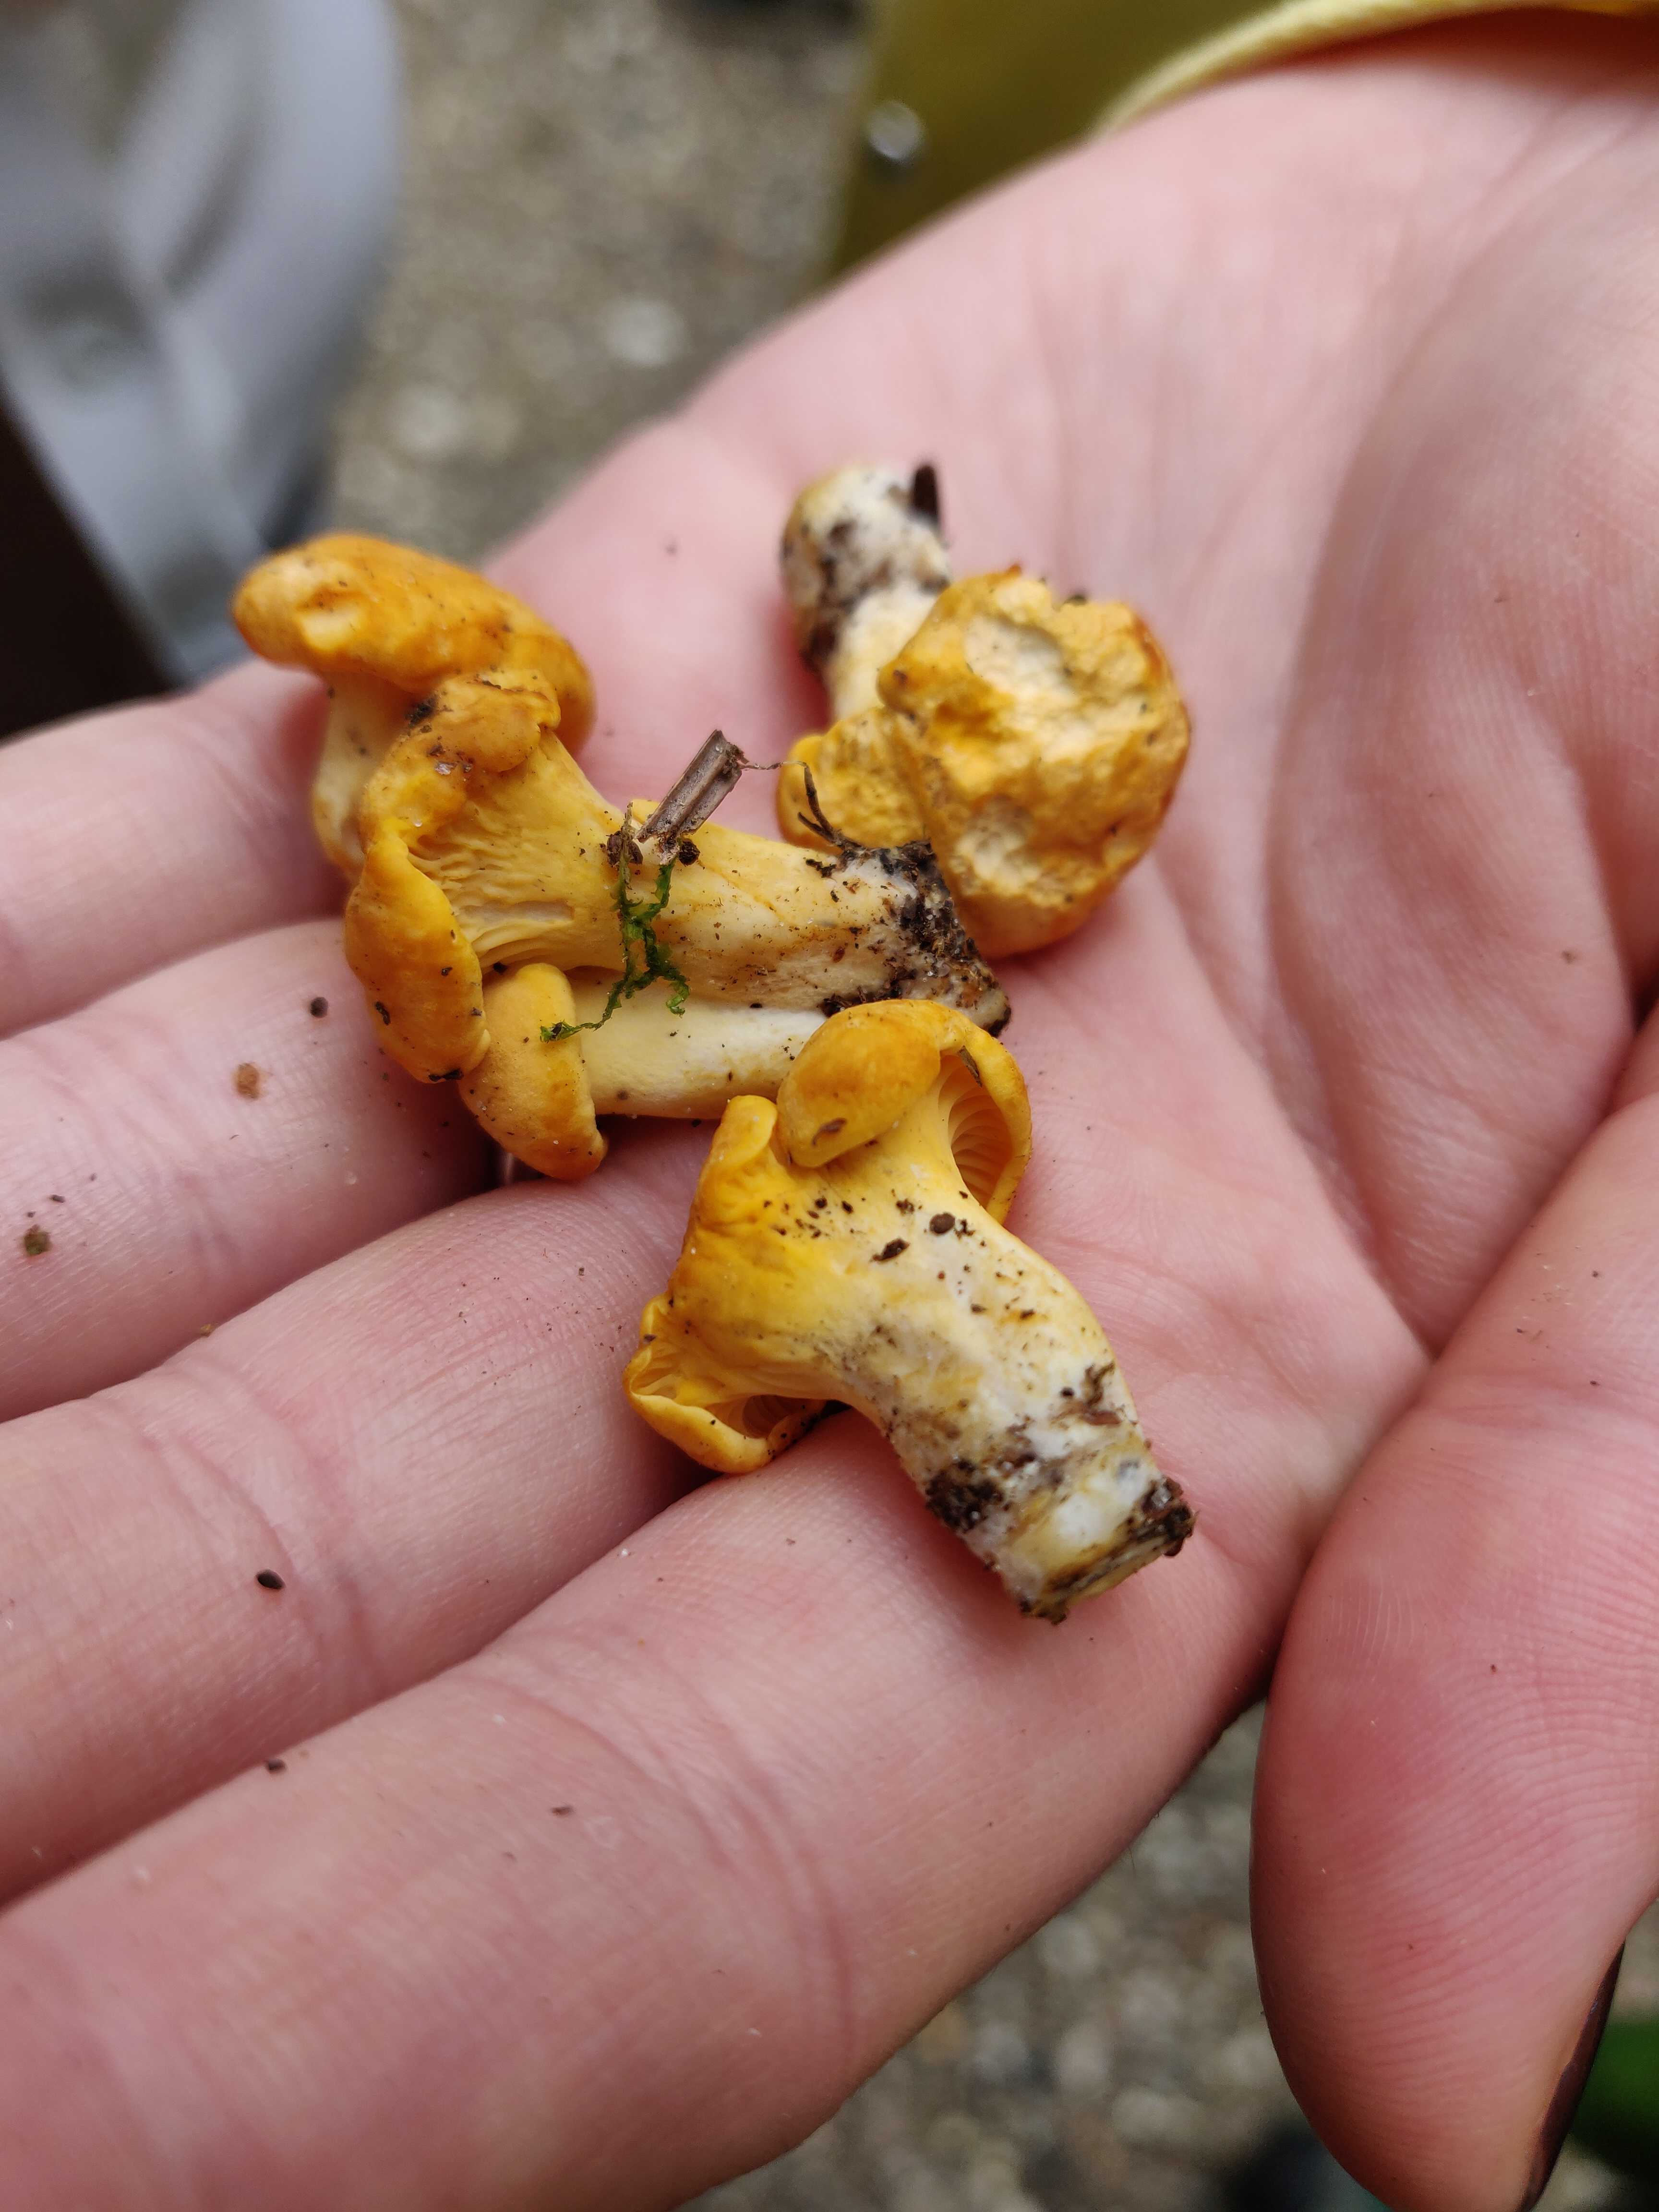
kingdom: Fungi
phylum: Basidiomycota
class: Agaricomycetes
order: Cantharellales
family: Hydnaceae
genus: Cantharellus
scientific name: Cantharellus cibarius
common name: almindelig kantarel
